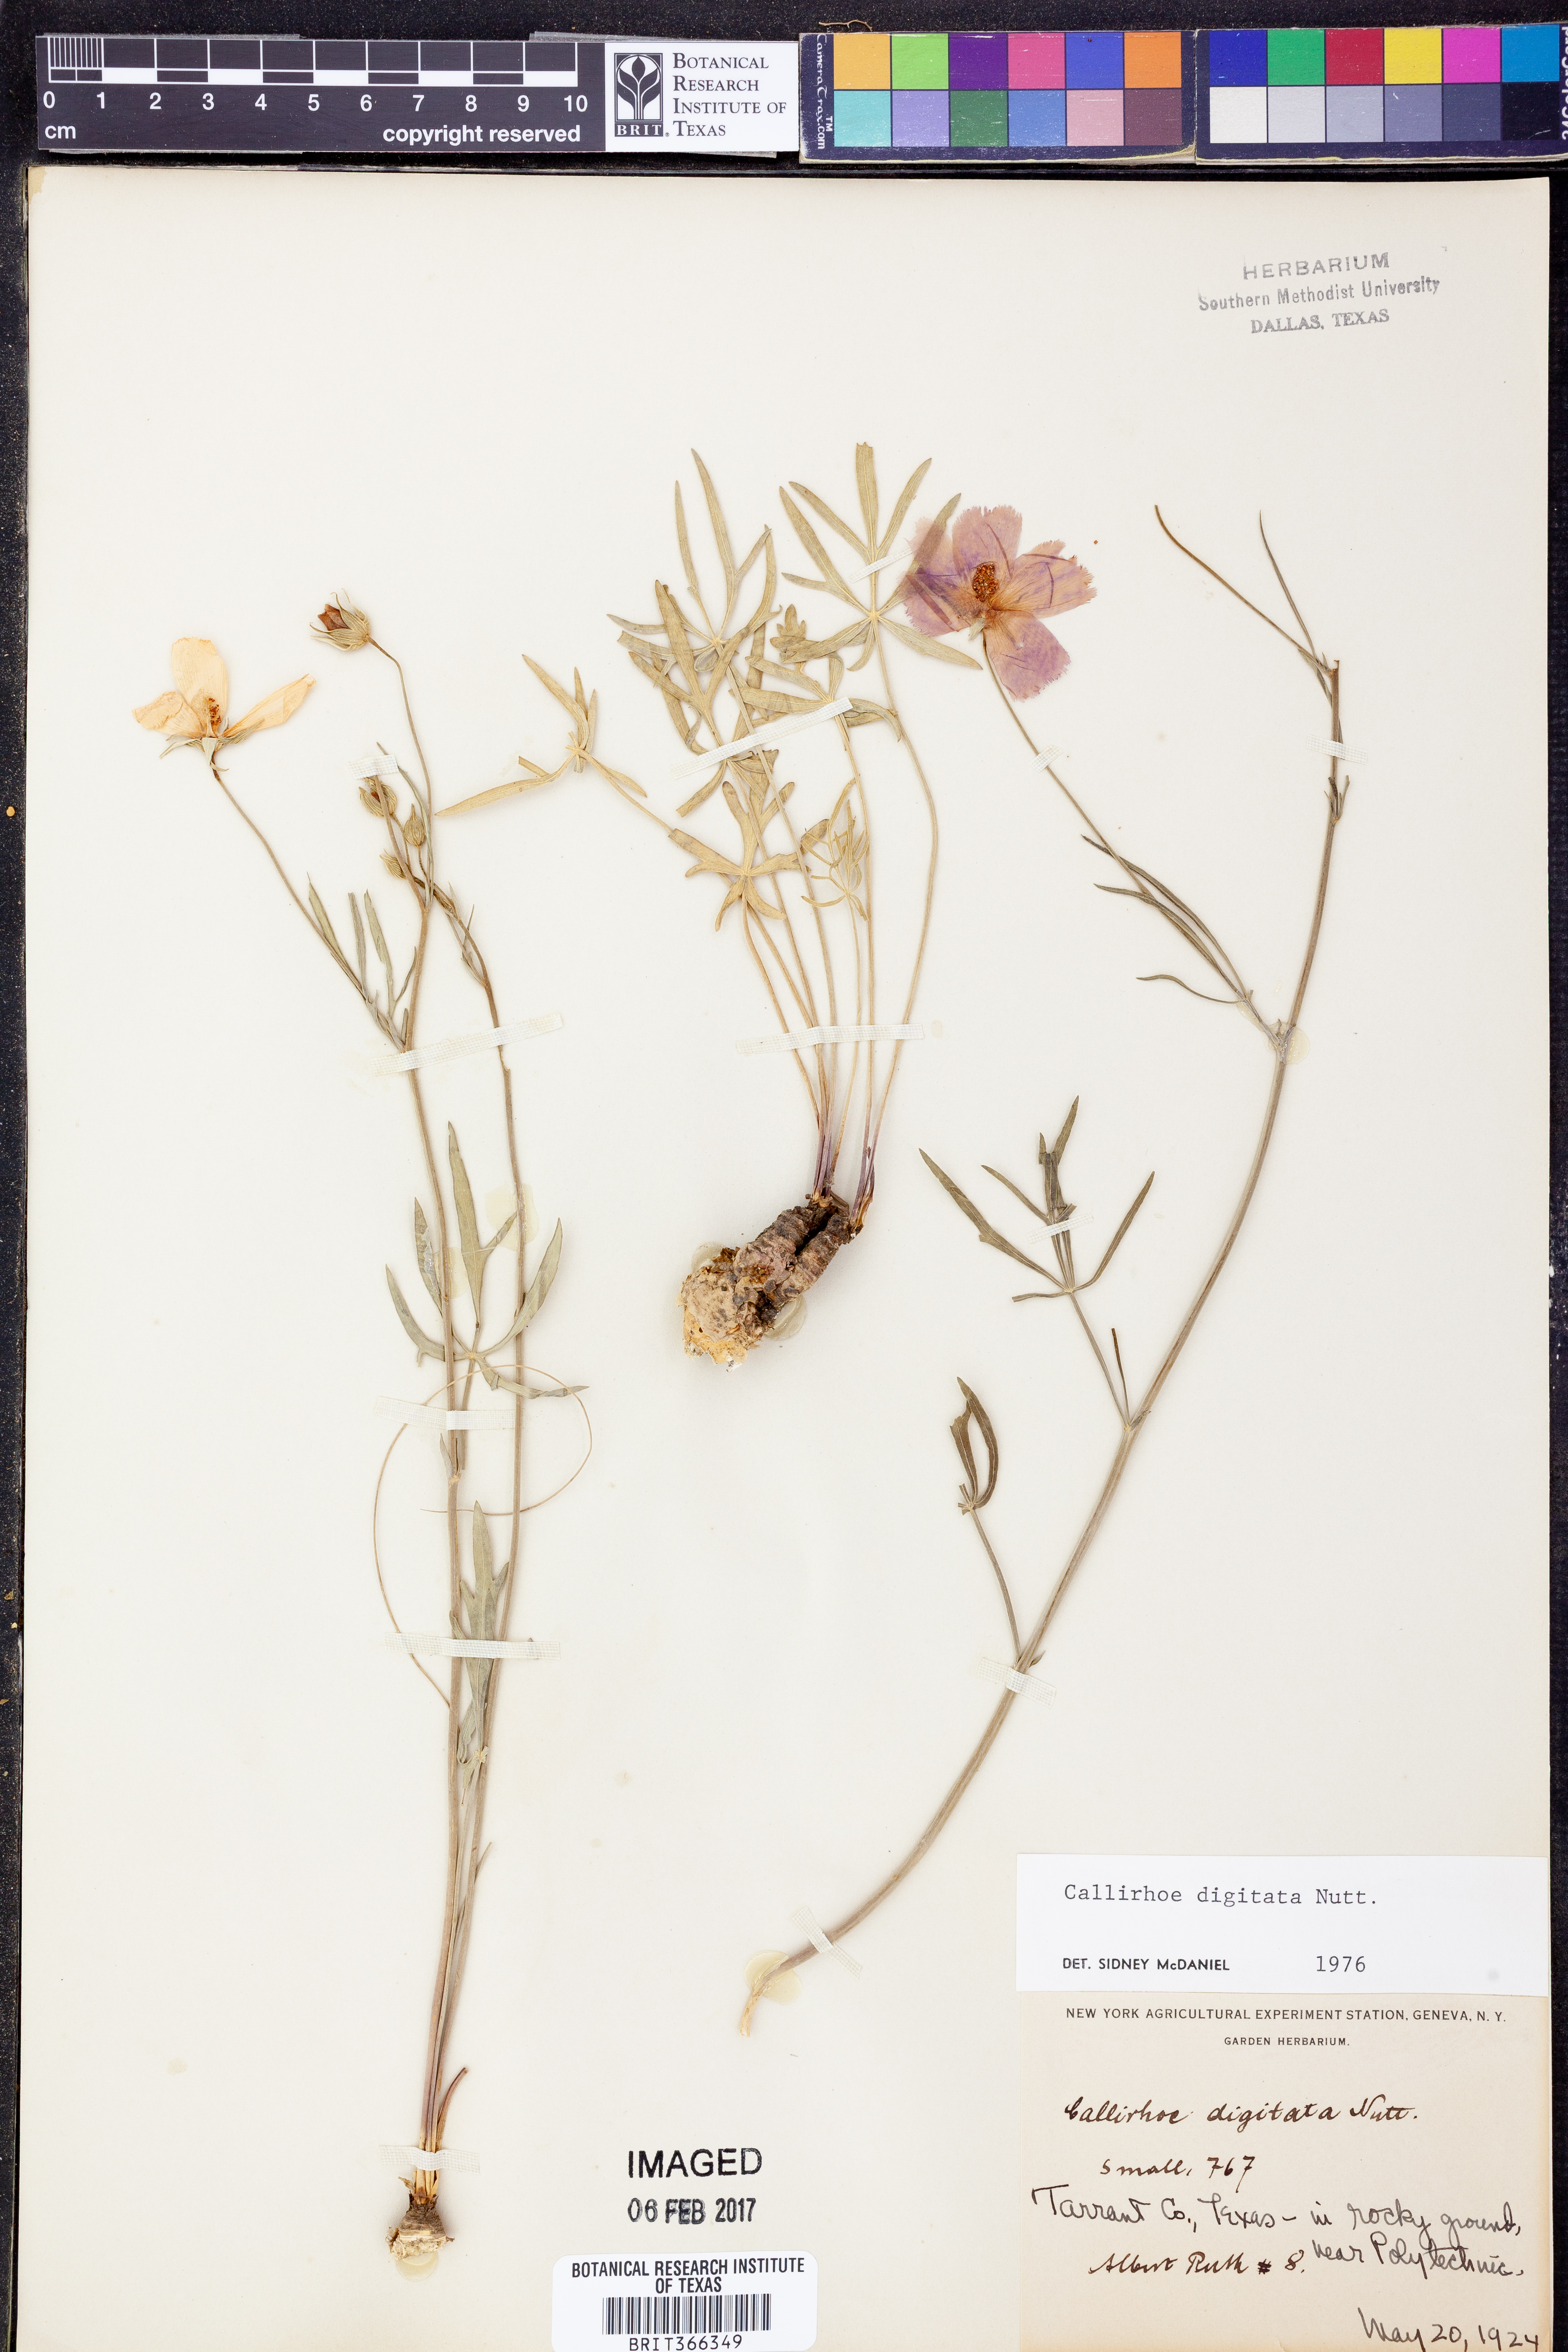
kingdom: Plantae
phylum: Tracheophyta
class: Magnoliopsida
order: Malvales
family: Malvaceae
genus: Callirhoe
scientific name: Callirhoe digitata
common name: Finger poppy-mallow
